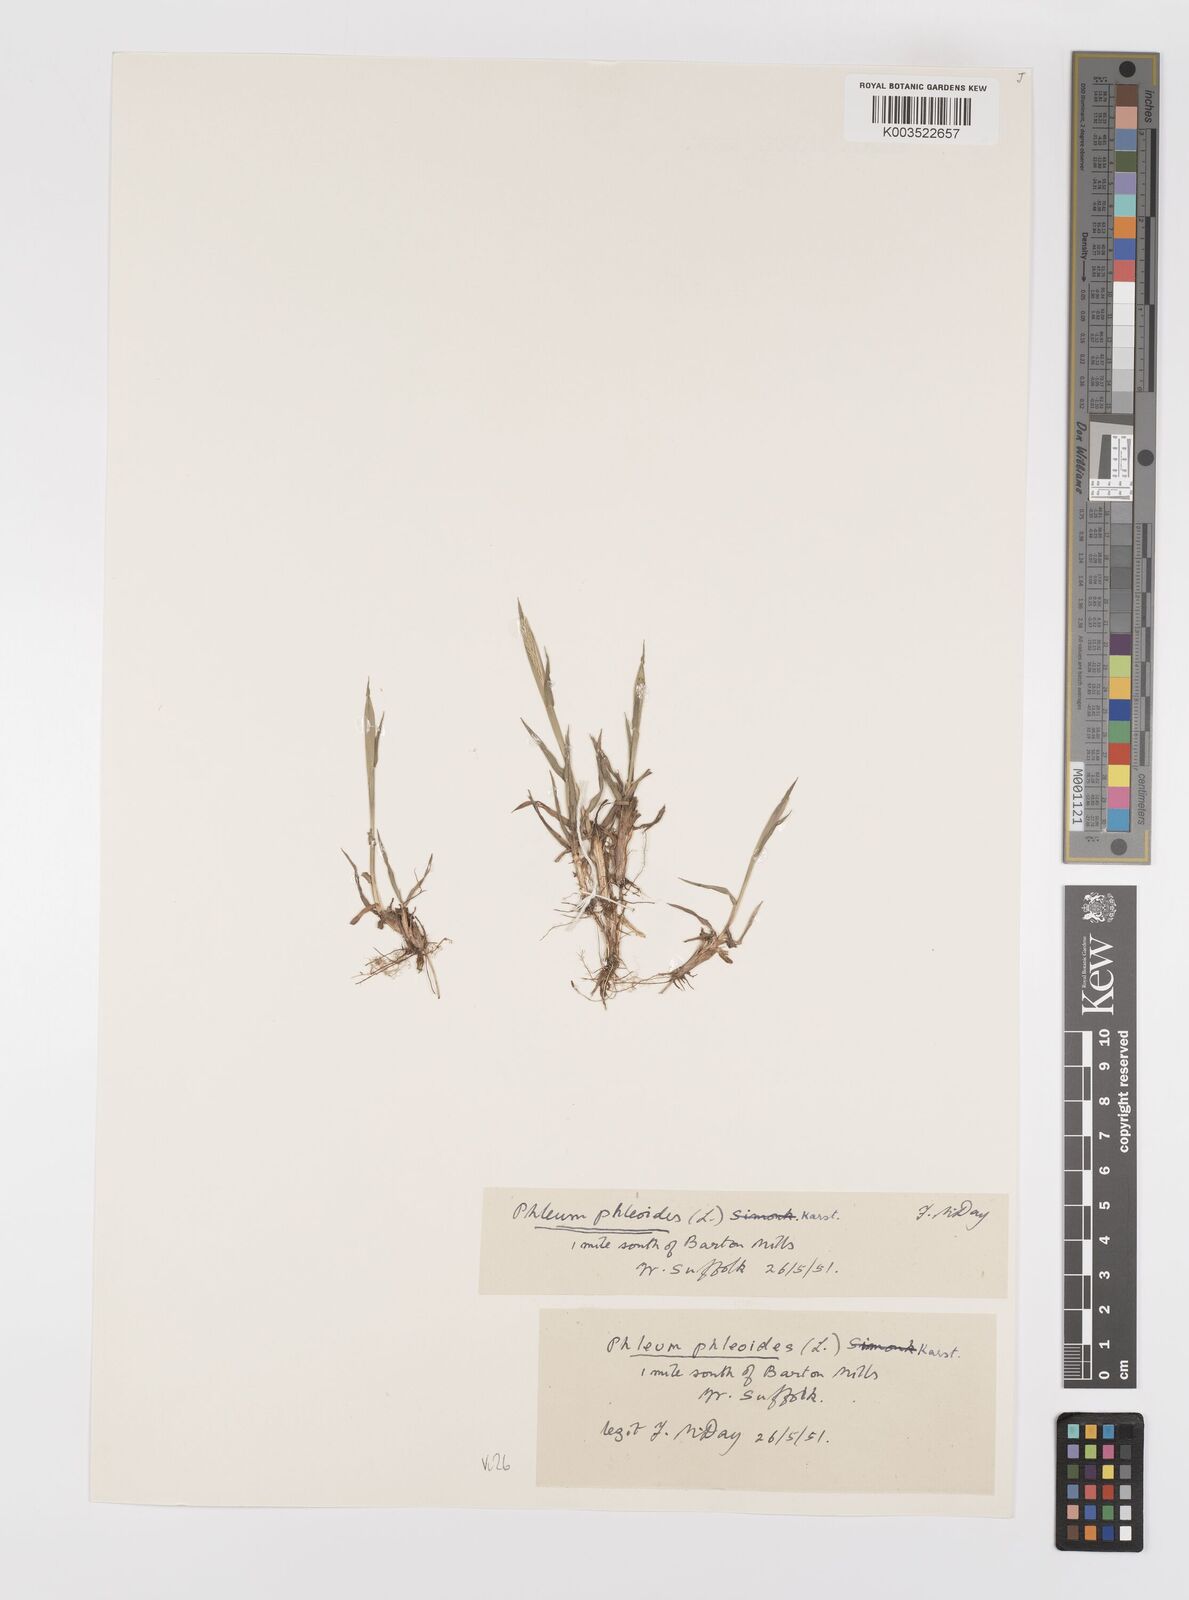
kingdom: Plantae
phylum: Tracheophyta
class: Liliopsida
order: Poales
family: Poaceae
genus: Phleum
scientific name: Phleum phleoides
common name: Purple-stem cat's-tail
